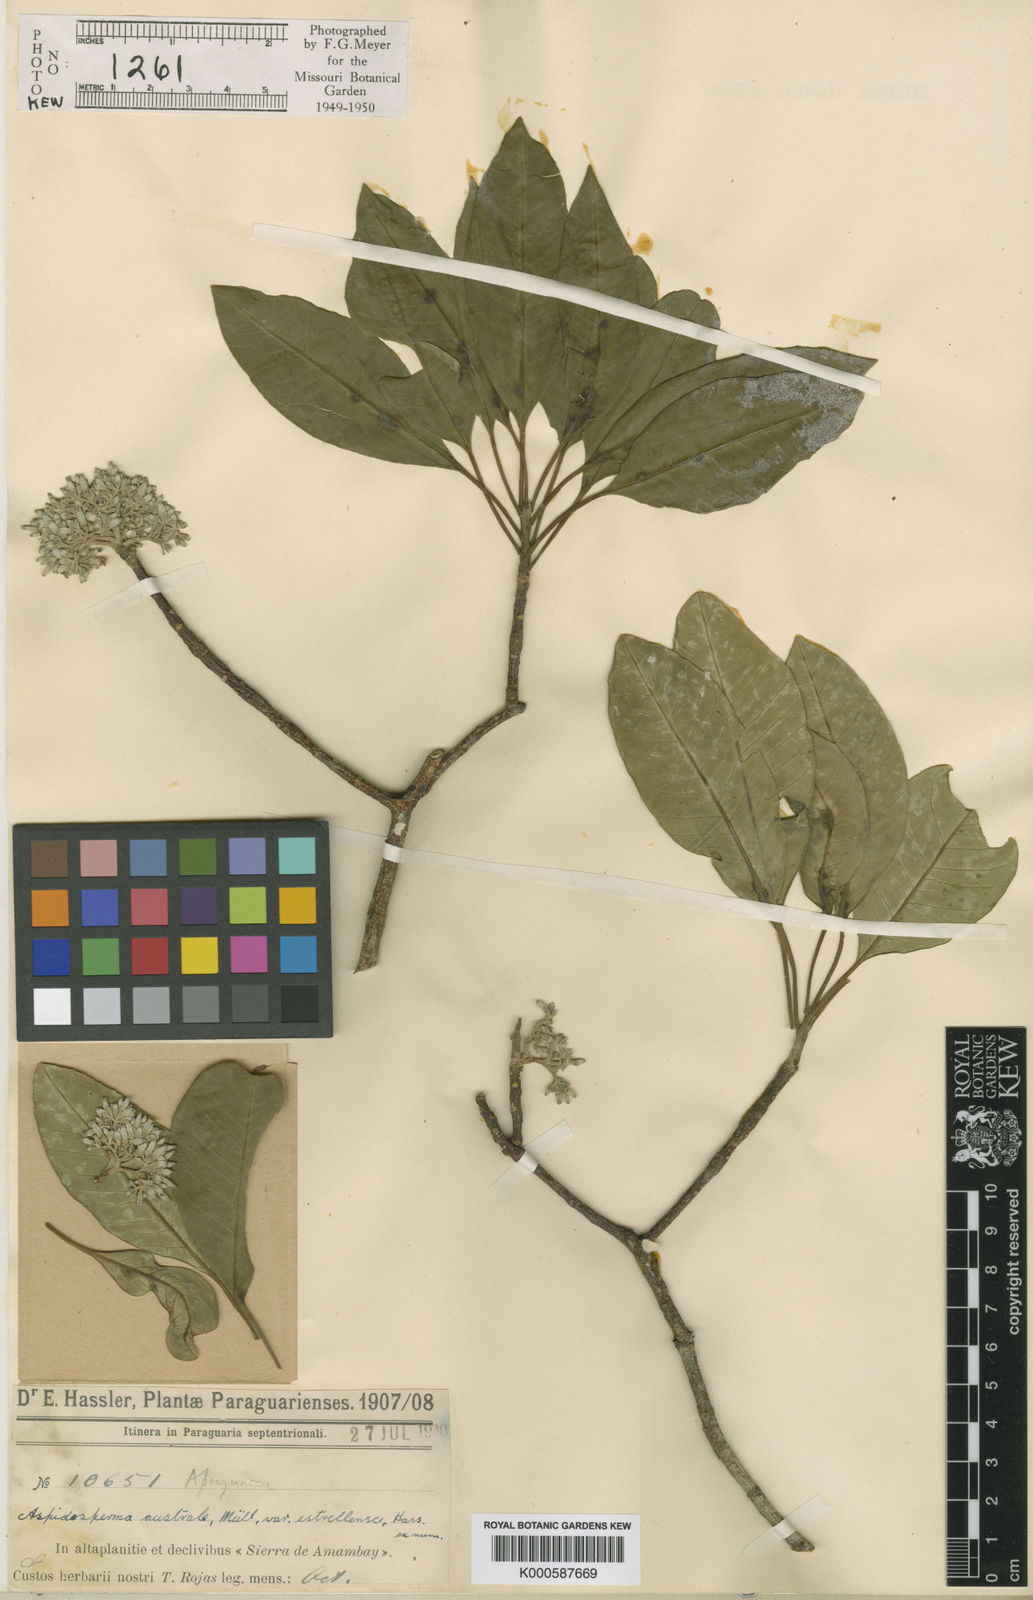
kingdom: Plantae
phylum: Tracheophyta
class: Magnoliopsida
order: Gentianales
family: Apocynaceae
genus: Aspidosperma
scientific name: Aspidosperma
